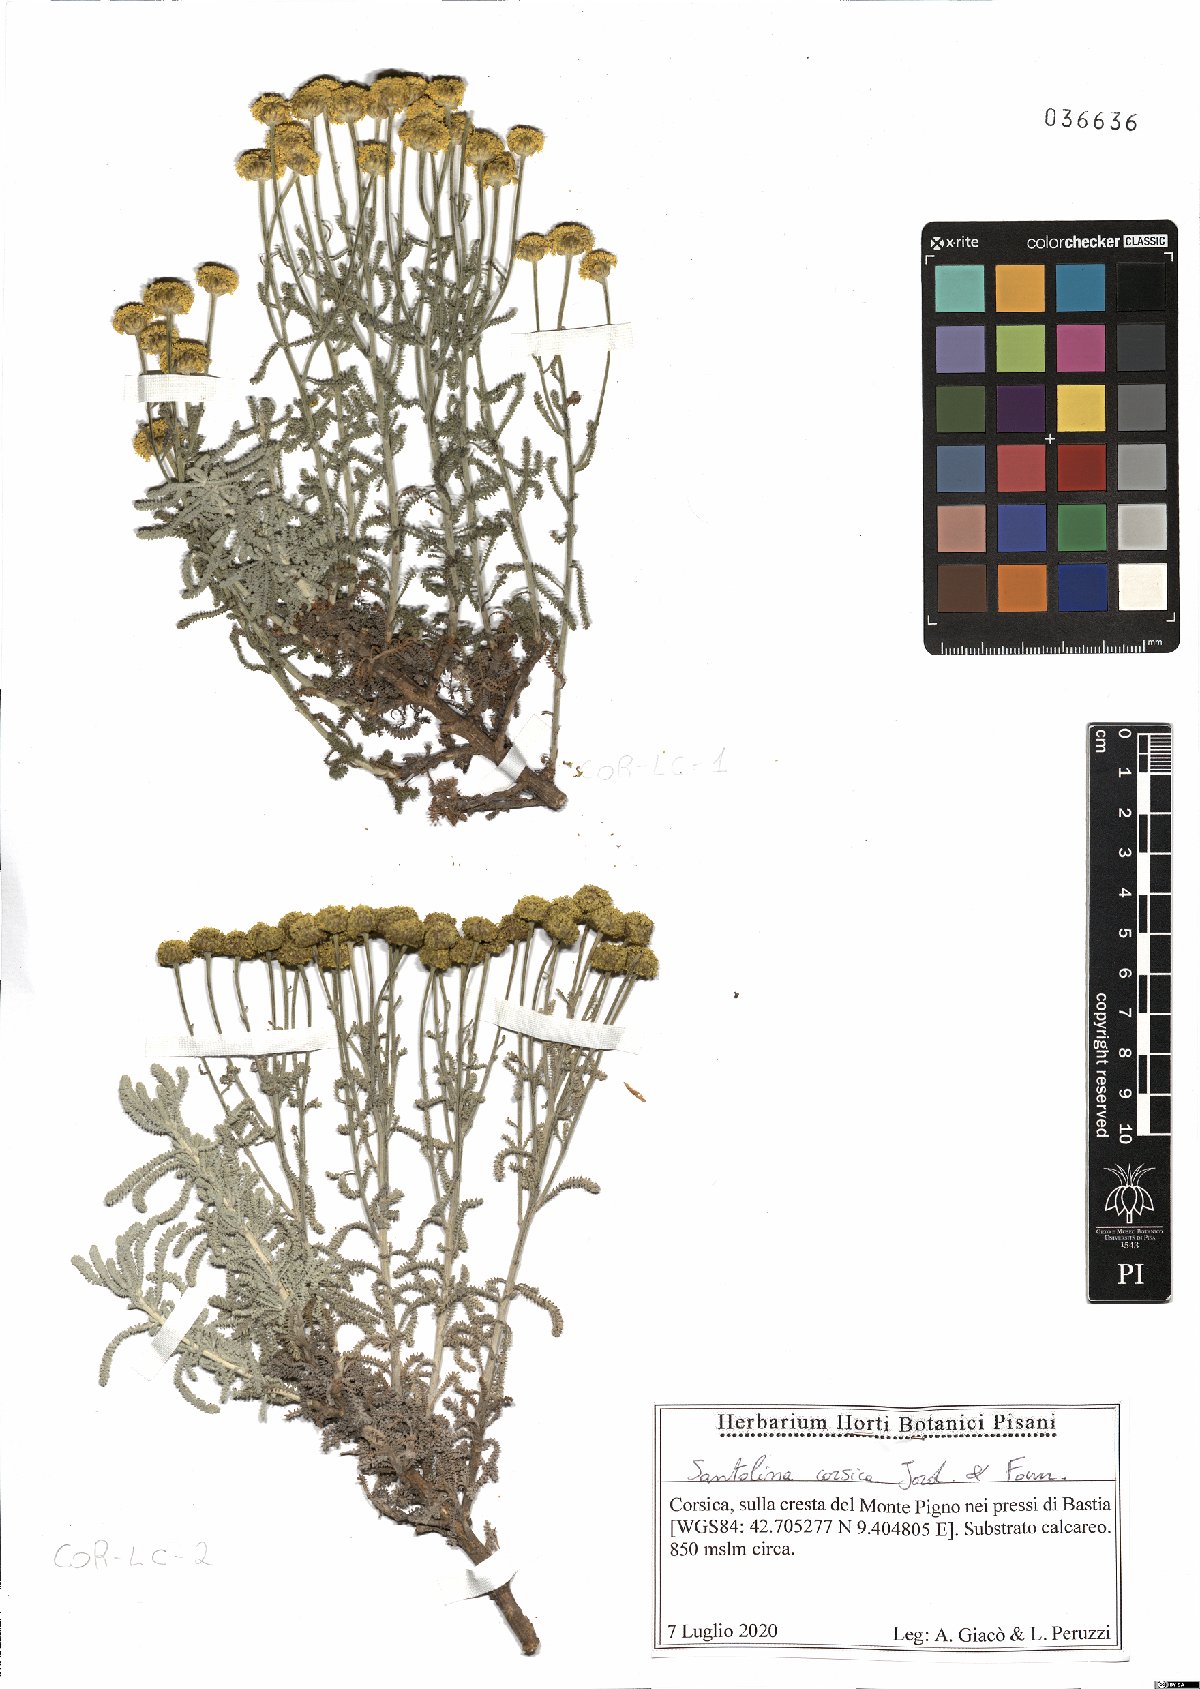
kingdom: Plantae
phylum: Tracheophyta
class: Magnoliopsida
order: Asterales
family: Asteraceae
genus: Santolina
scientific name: Santolina corsica
